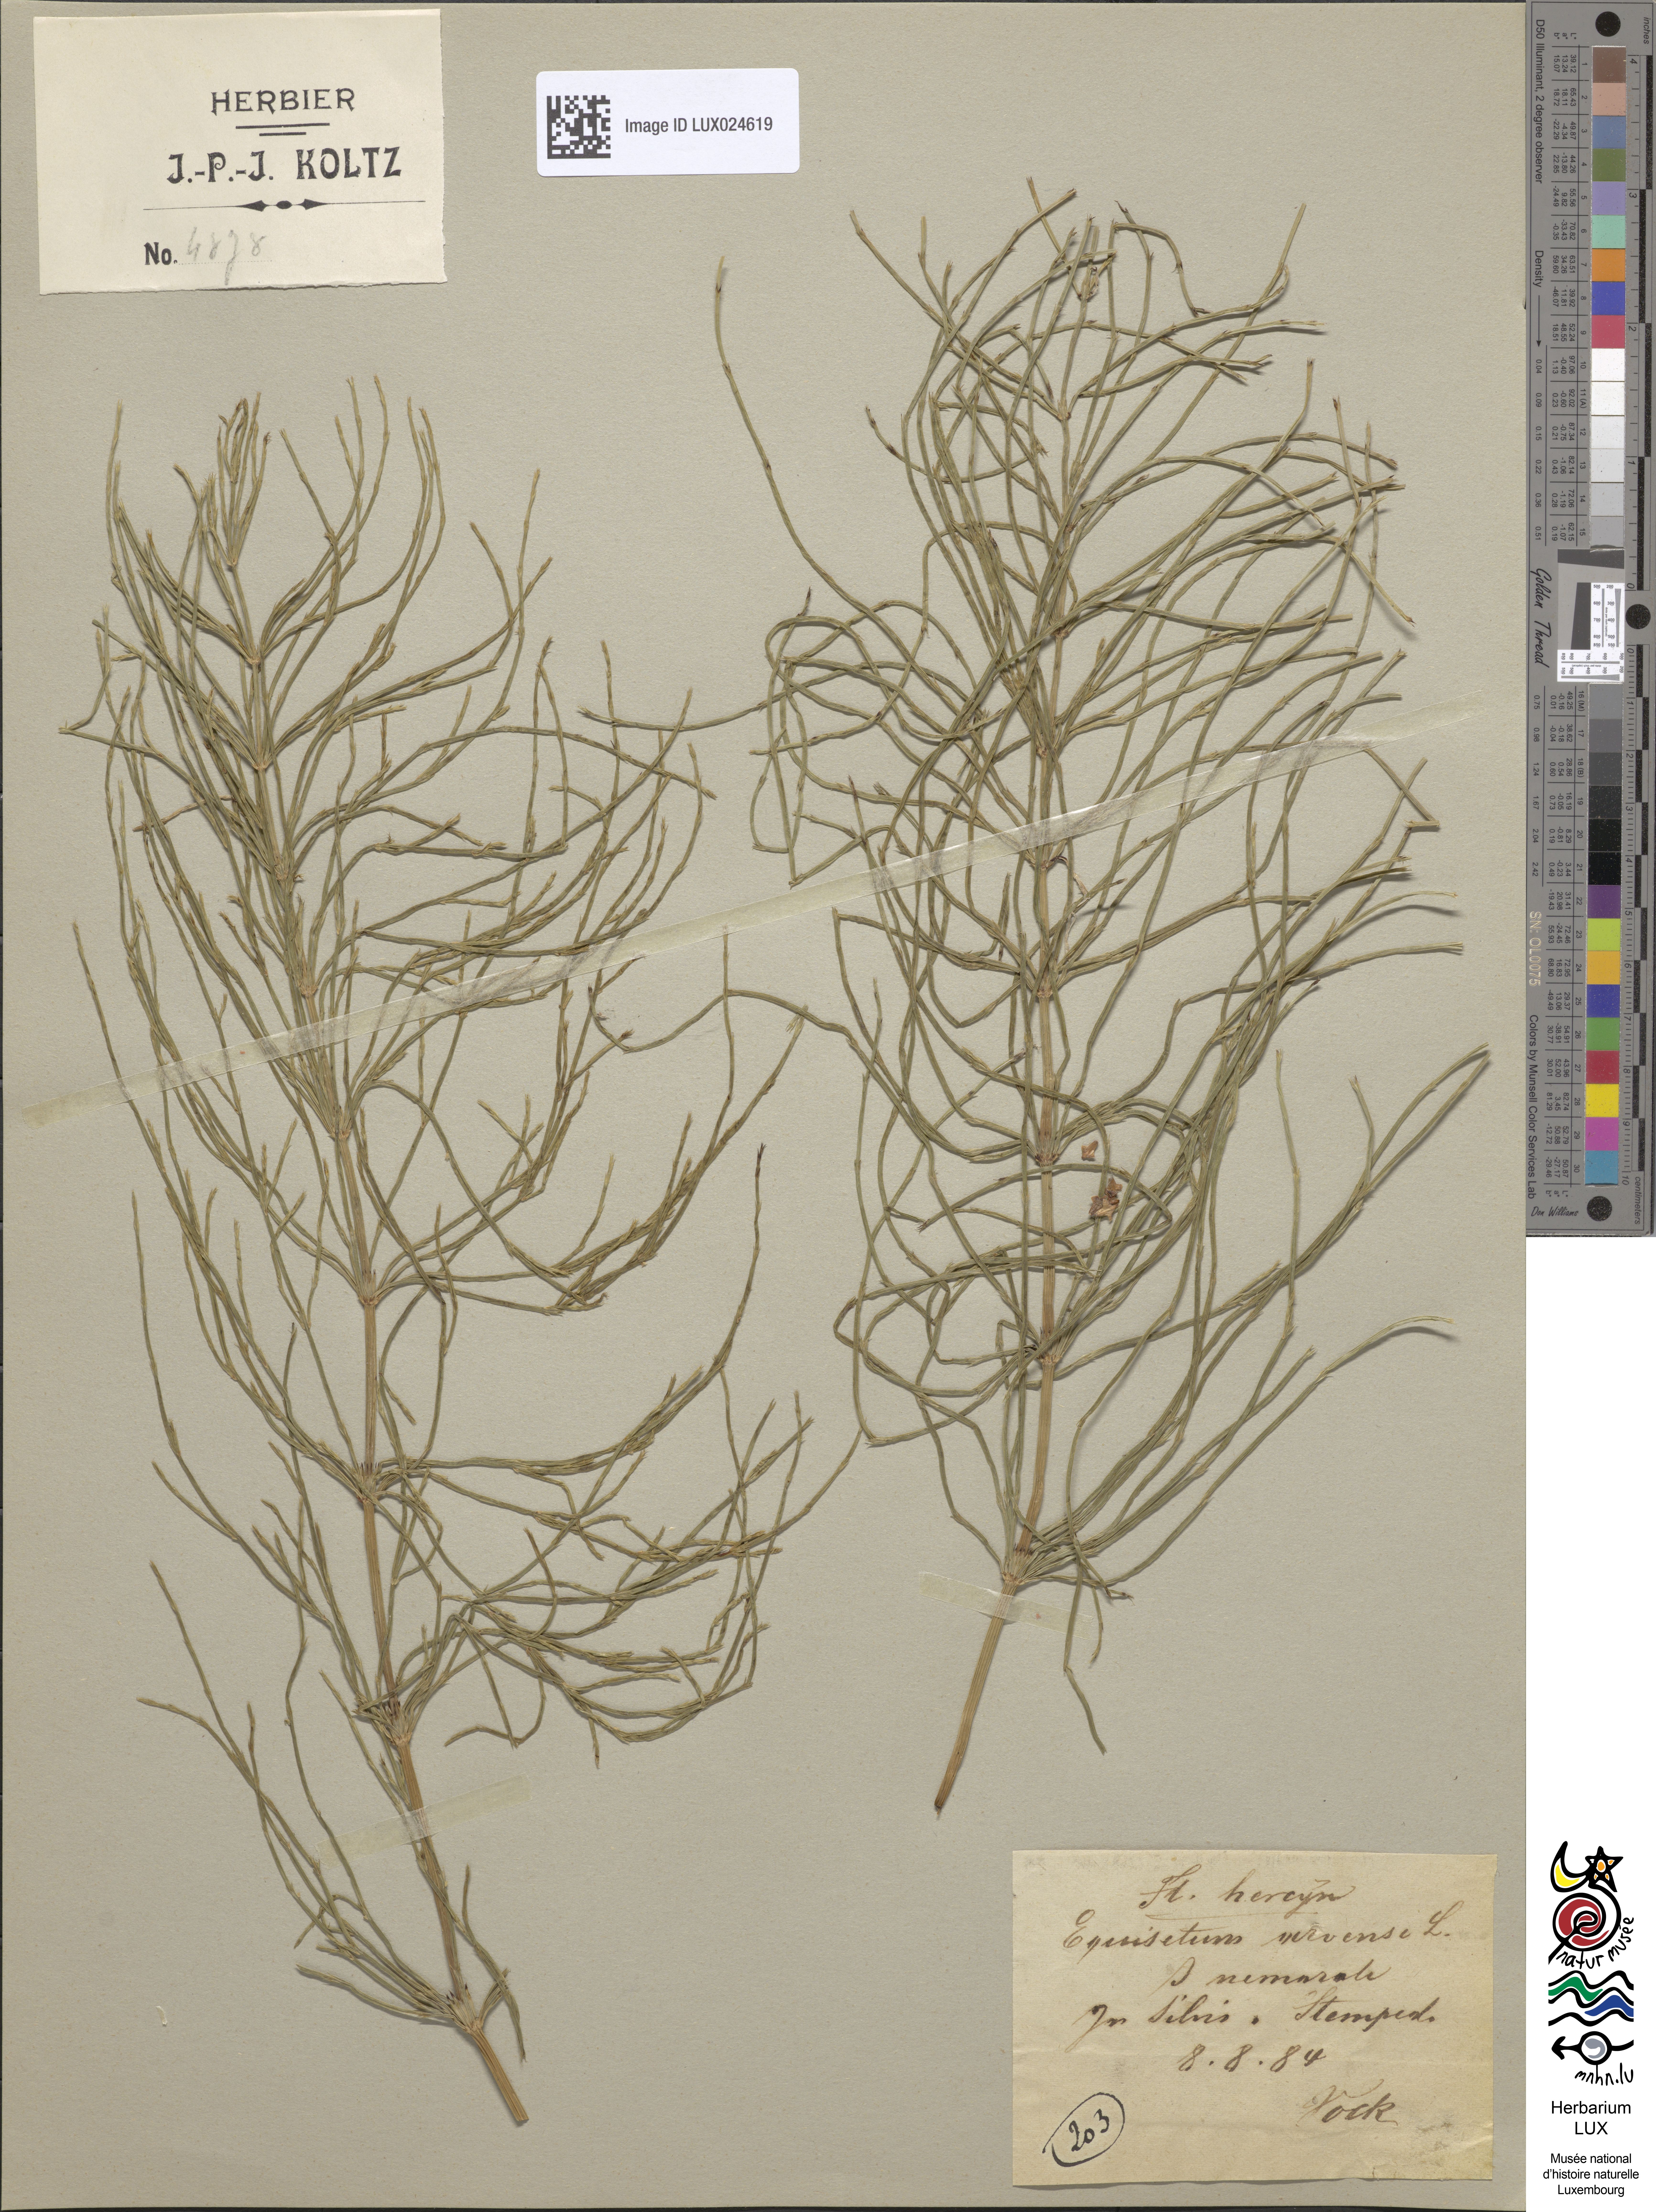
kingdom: Plantae
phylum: Tracheophyta
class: Polypodiopsida
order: Equisetales
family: Equisetaceae
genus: Equisetum
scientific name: Equisetum arvense
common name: Field horsetail
